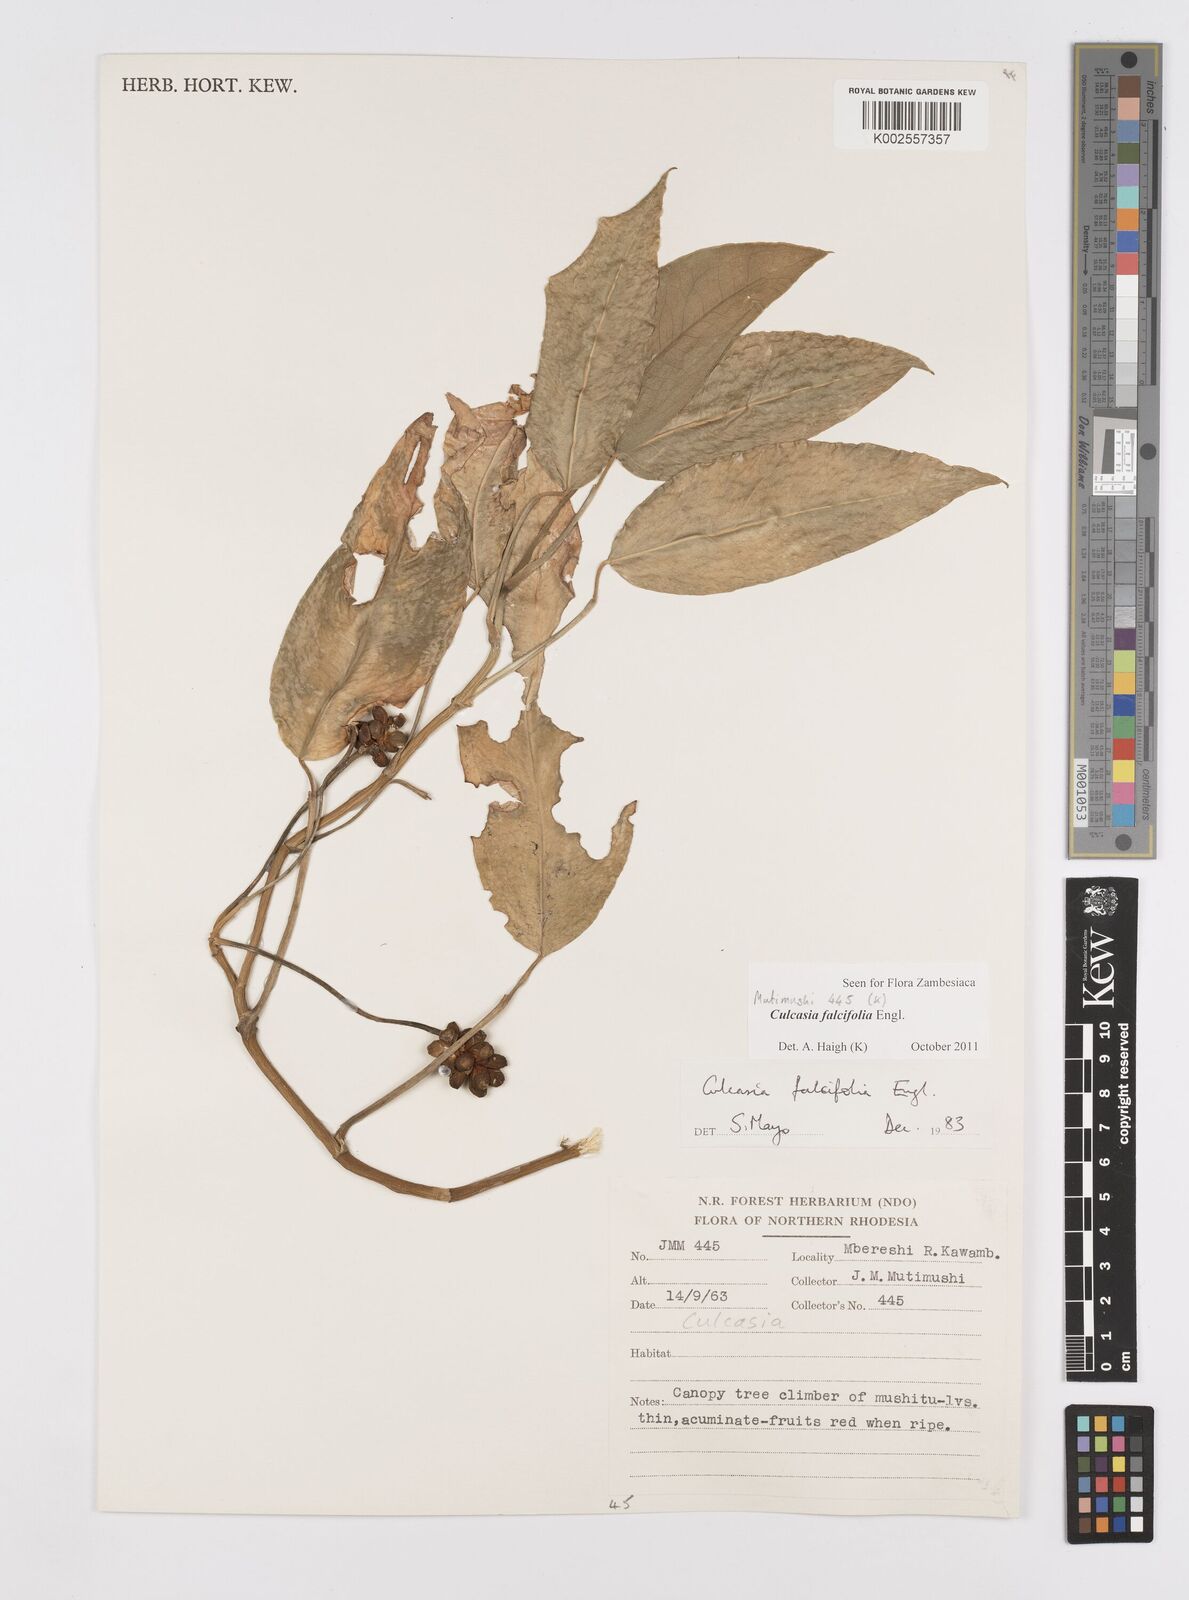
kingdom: Plantae
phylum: Tracheophyta
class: Liliopsida
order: Alismatales
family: Araceae
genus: Culcasia
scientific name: Culcasia falcifolia
